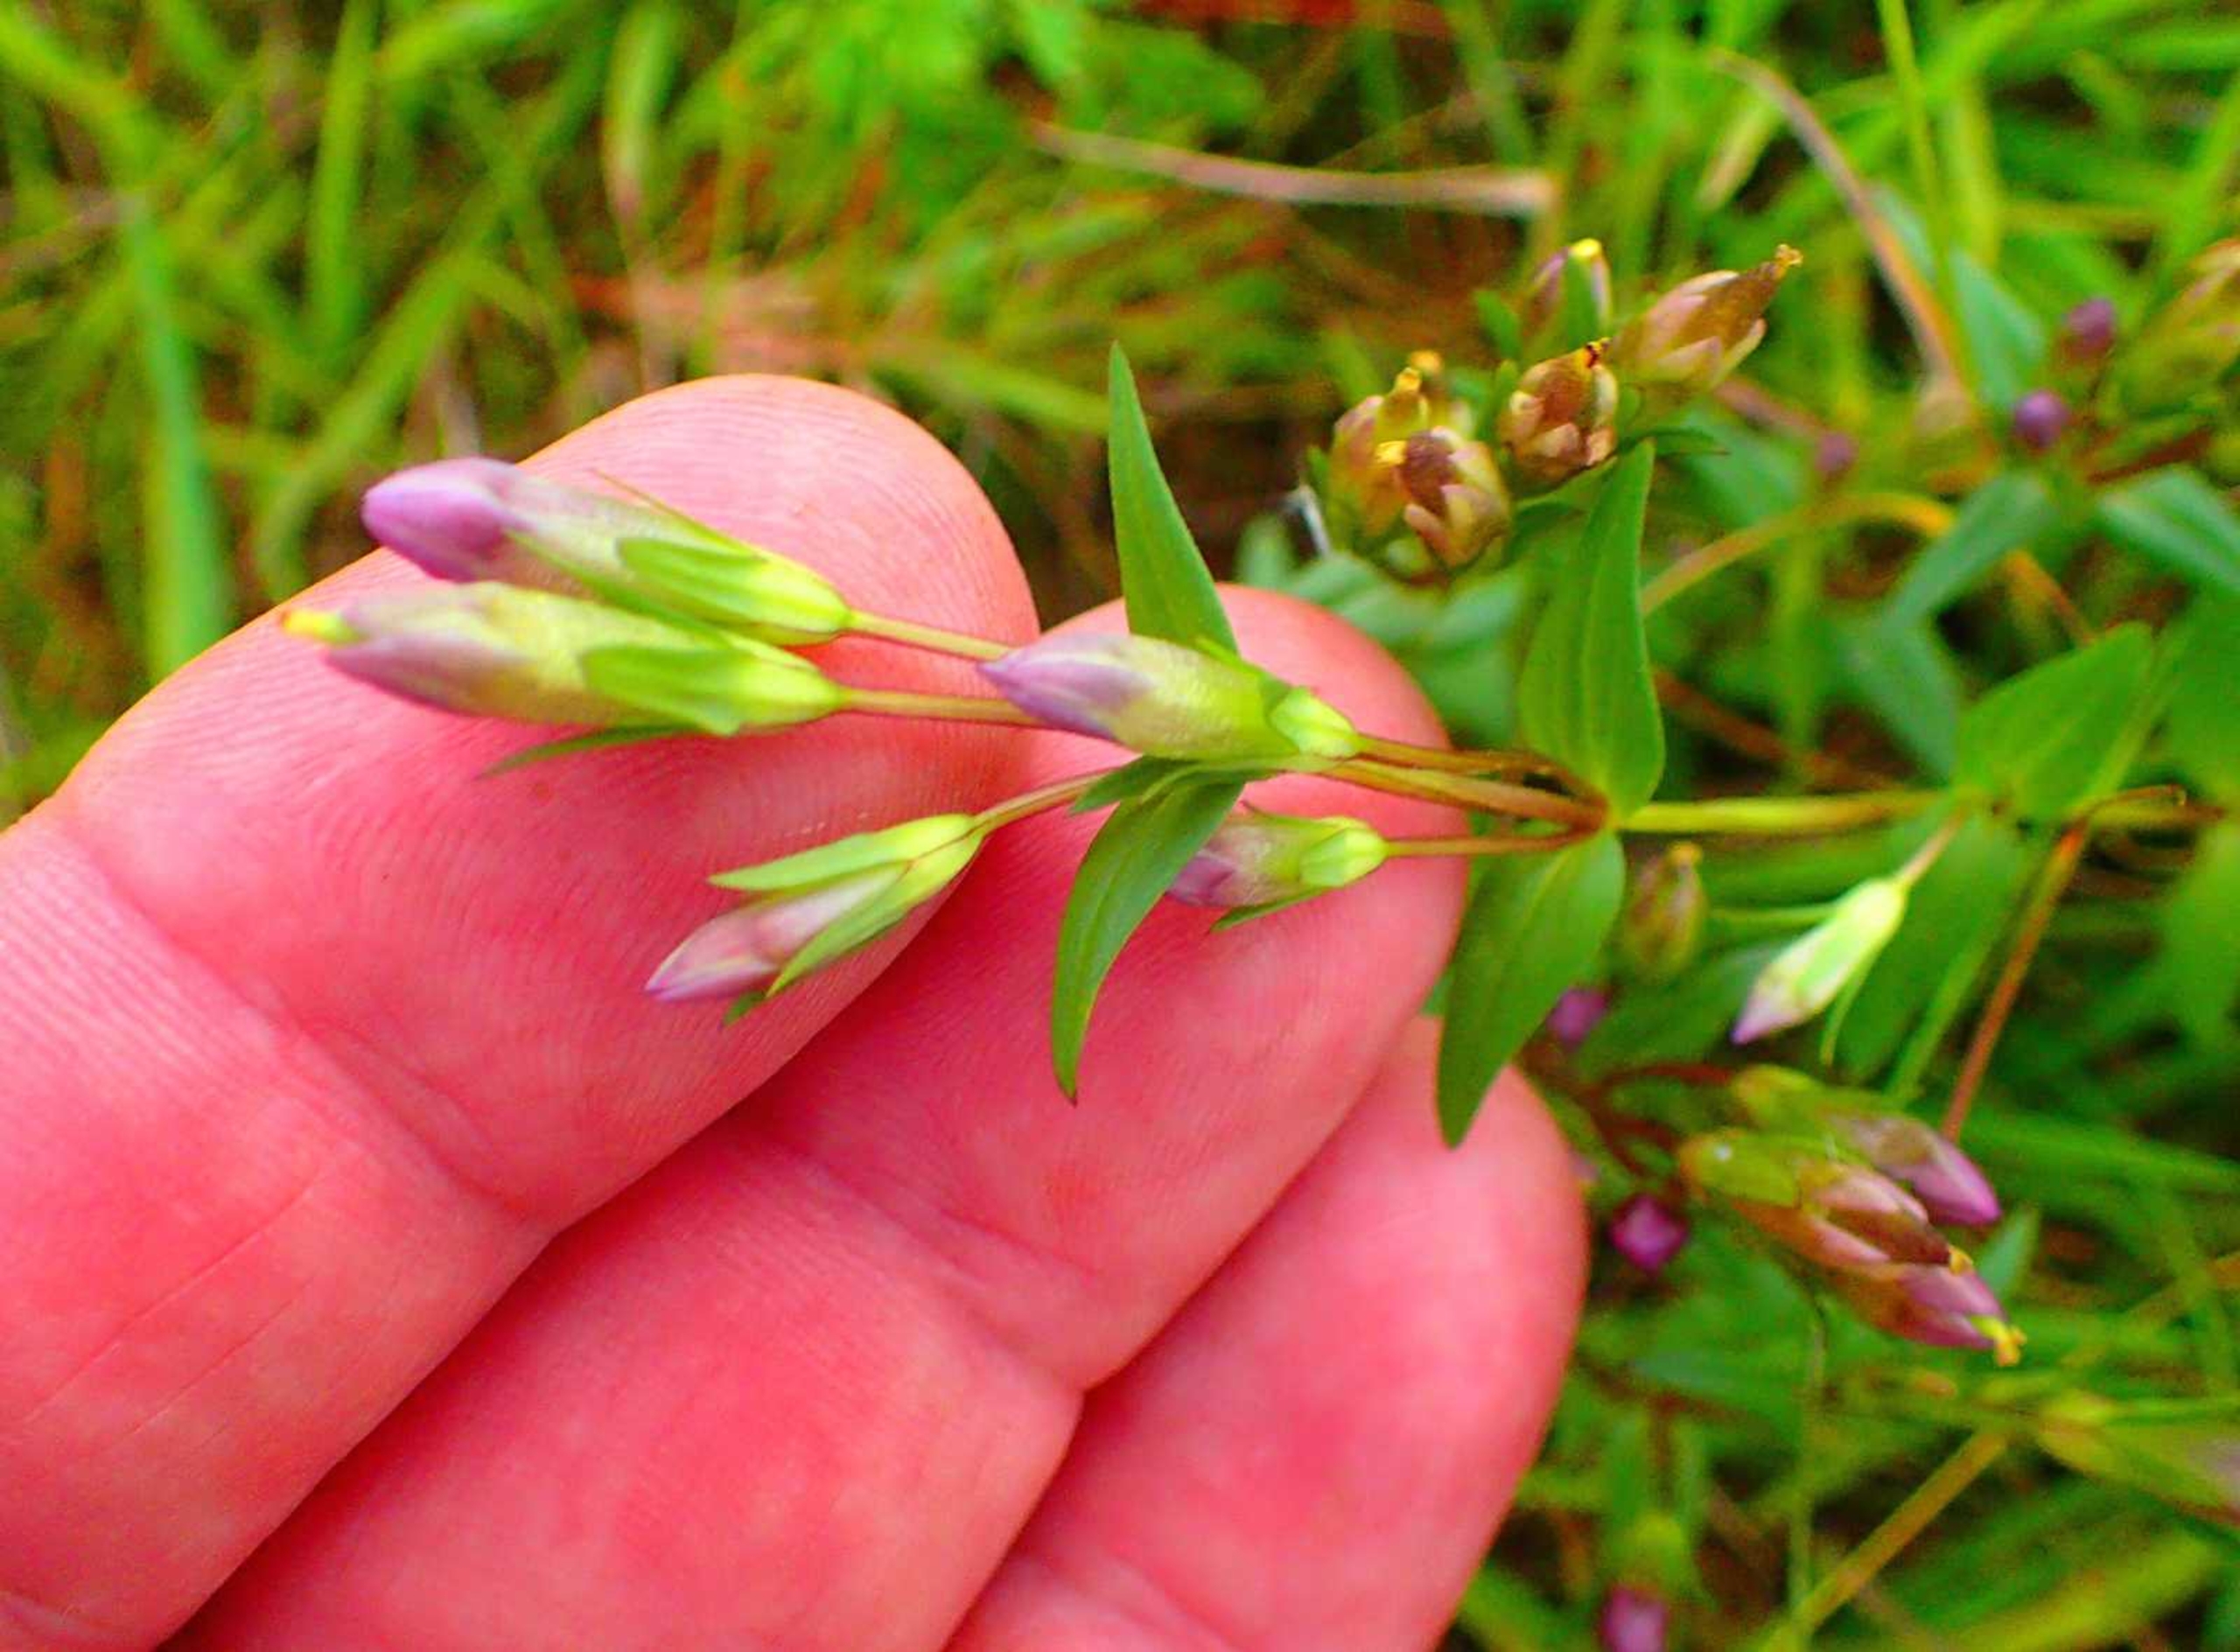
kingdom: Plantae
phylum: Tracheophyta
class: Magnoliopsida
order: Gentianales
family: Gentianaceae
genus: Gentianella
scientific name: Gentianella uliginosa
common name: Eng-ensian
